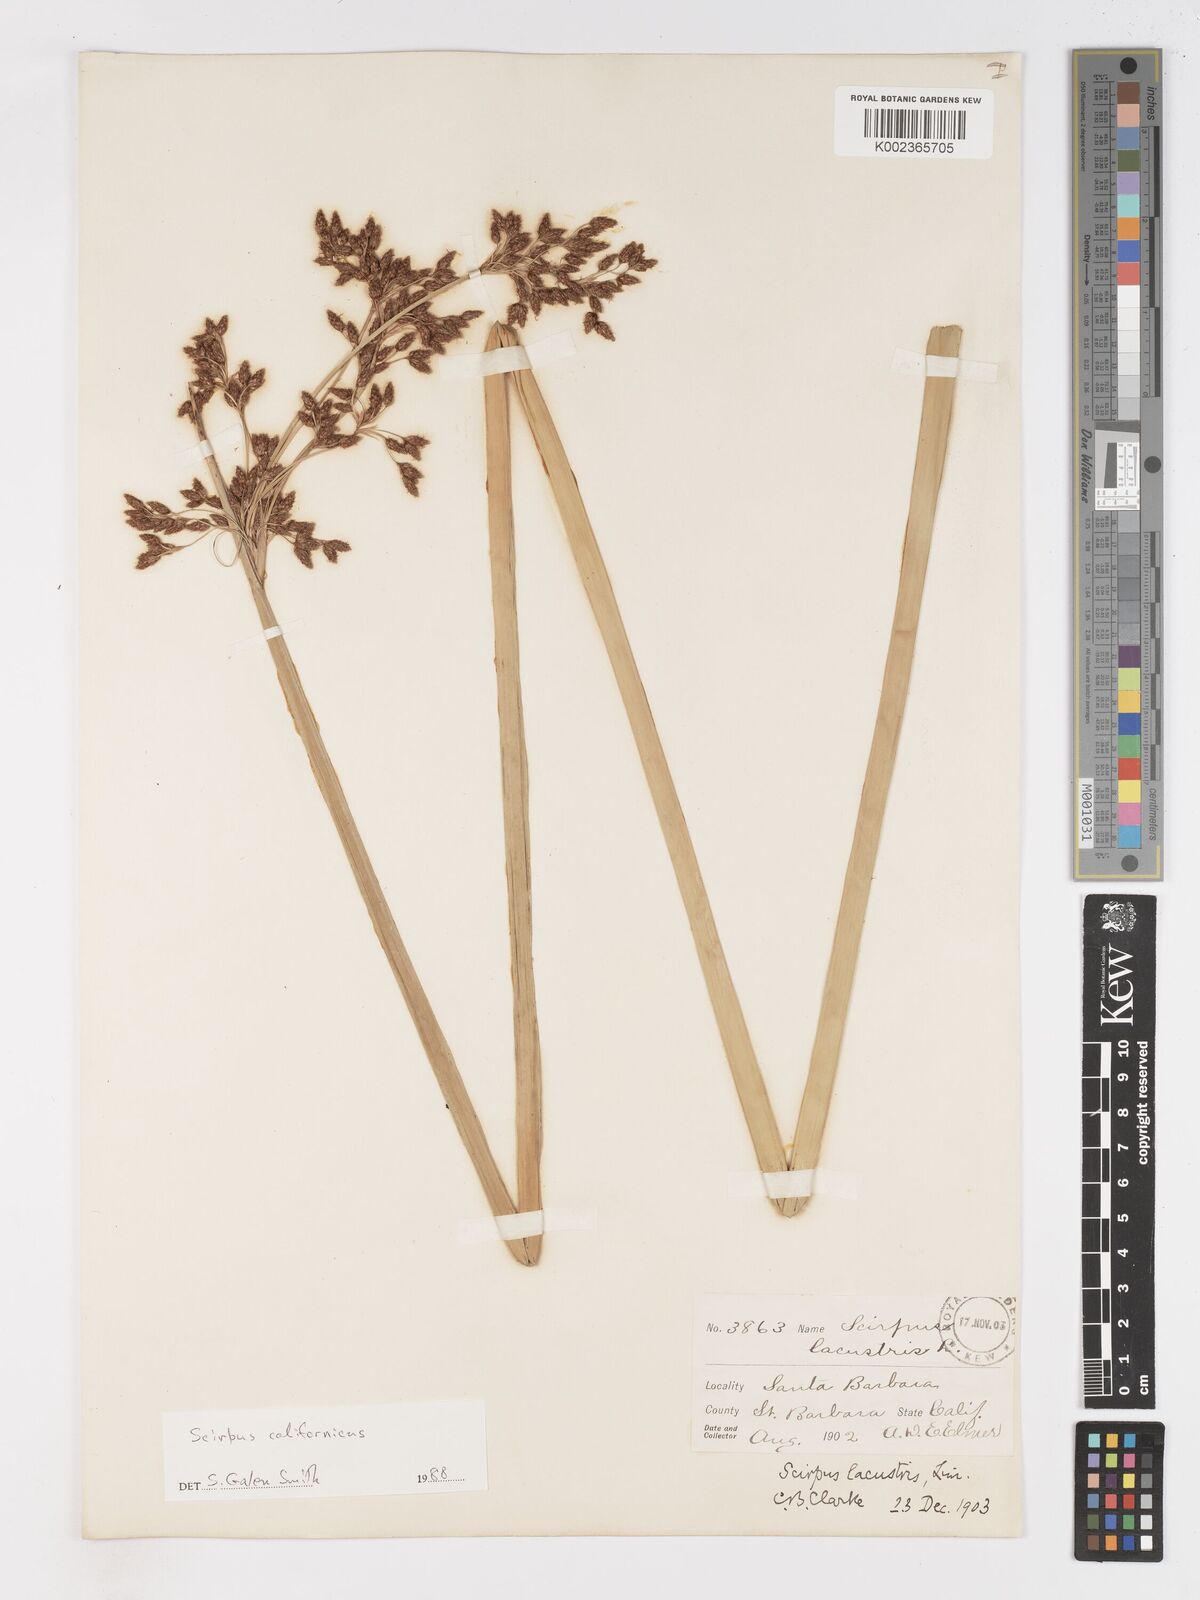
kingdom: Plantae
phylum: Tracheophyta
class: Liliopsida
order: Poales
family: Cyperaceae
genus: Schoenoplectus
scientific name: Schoenoplectus lacustris
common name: Common club-rush
